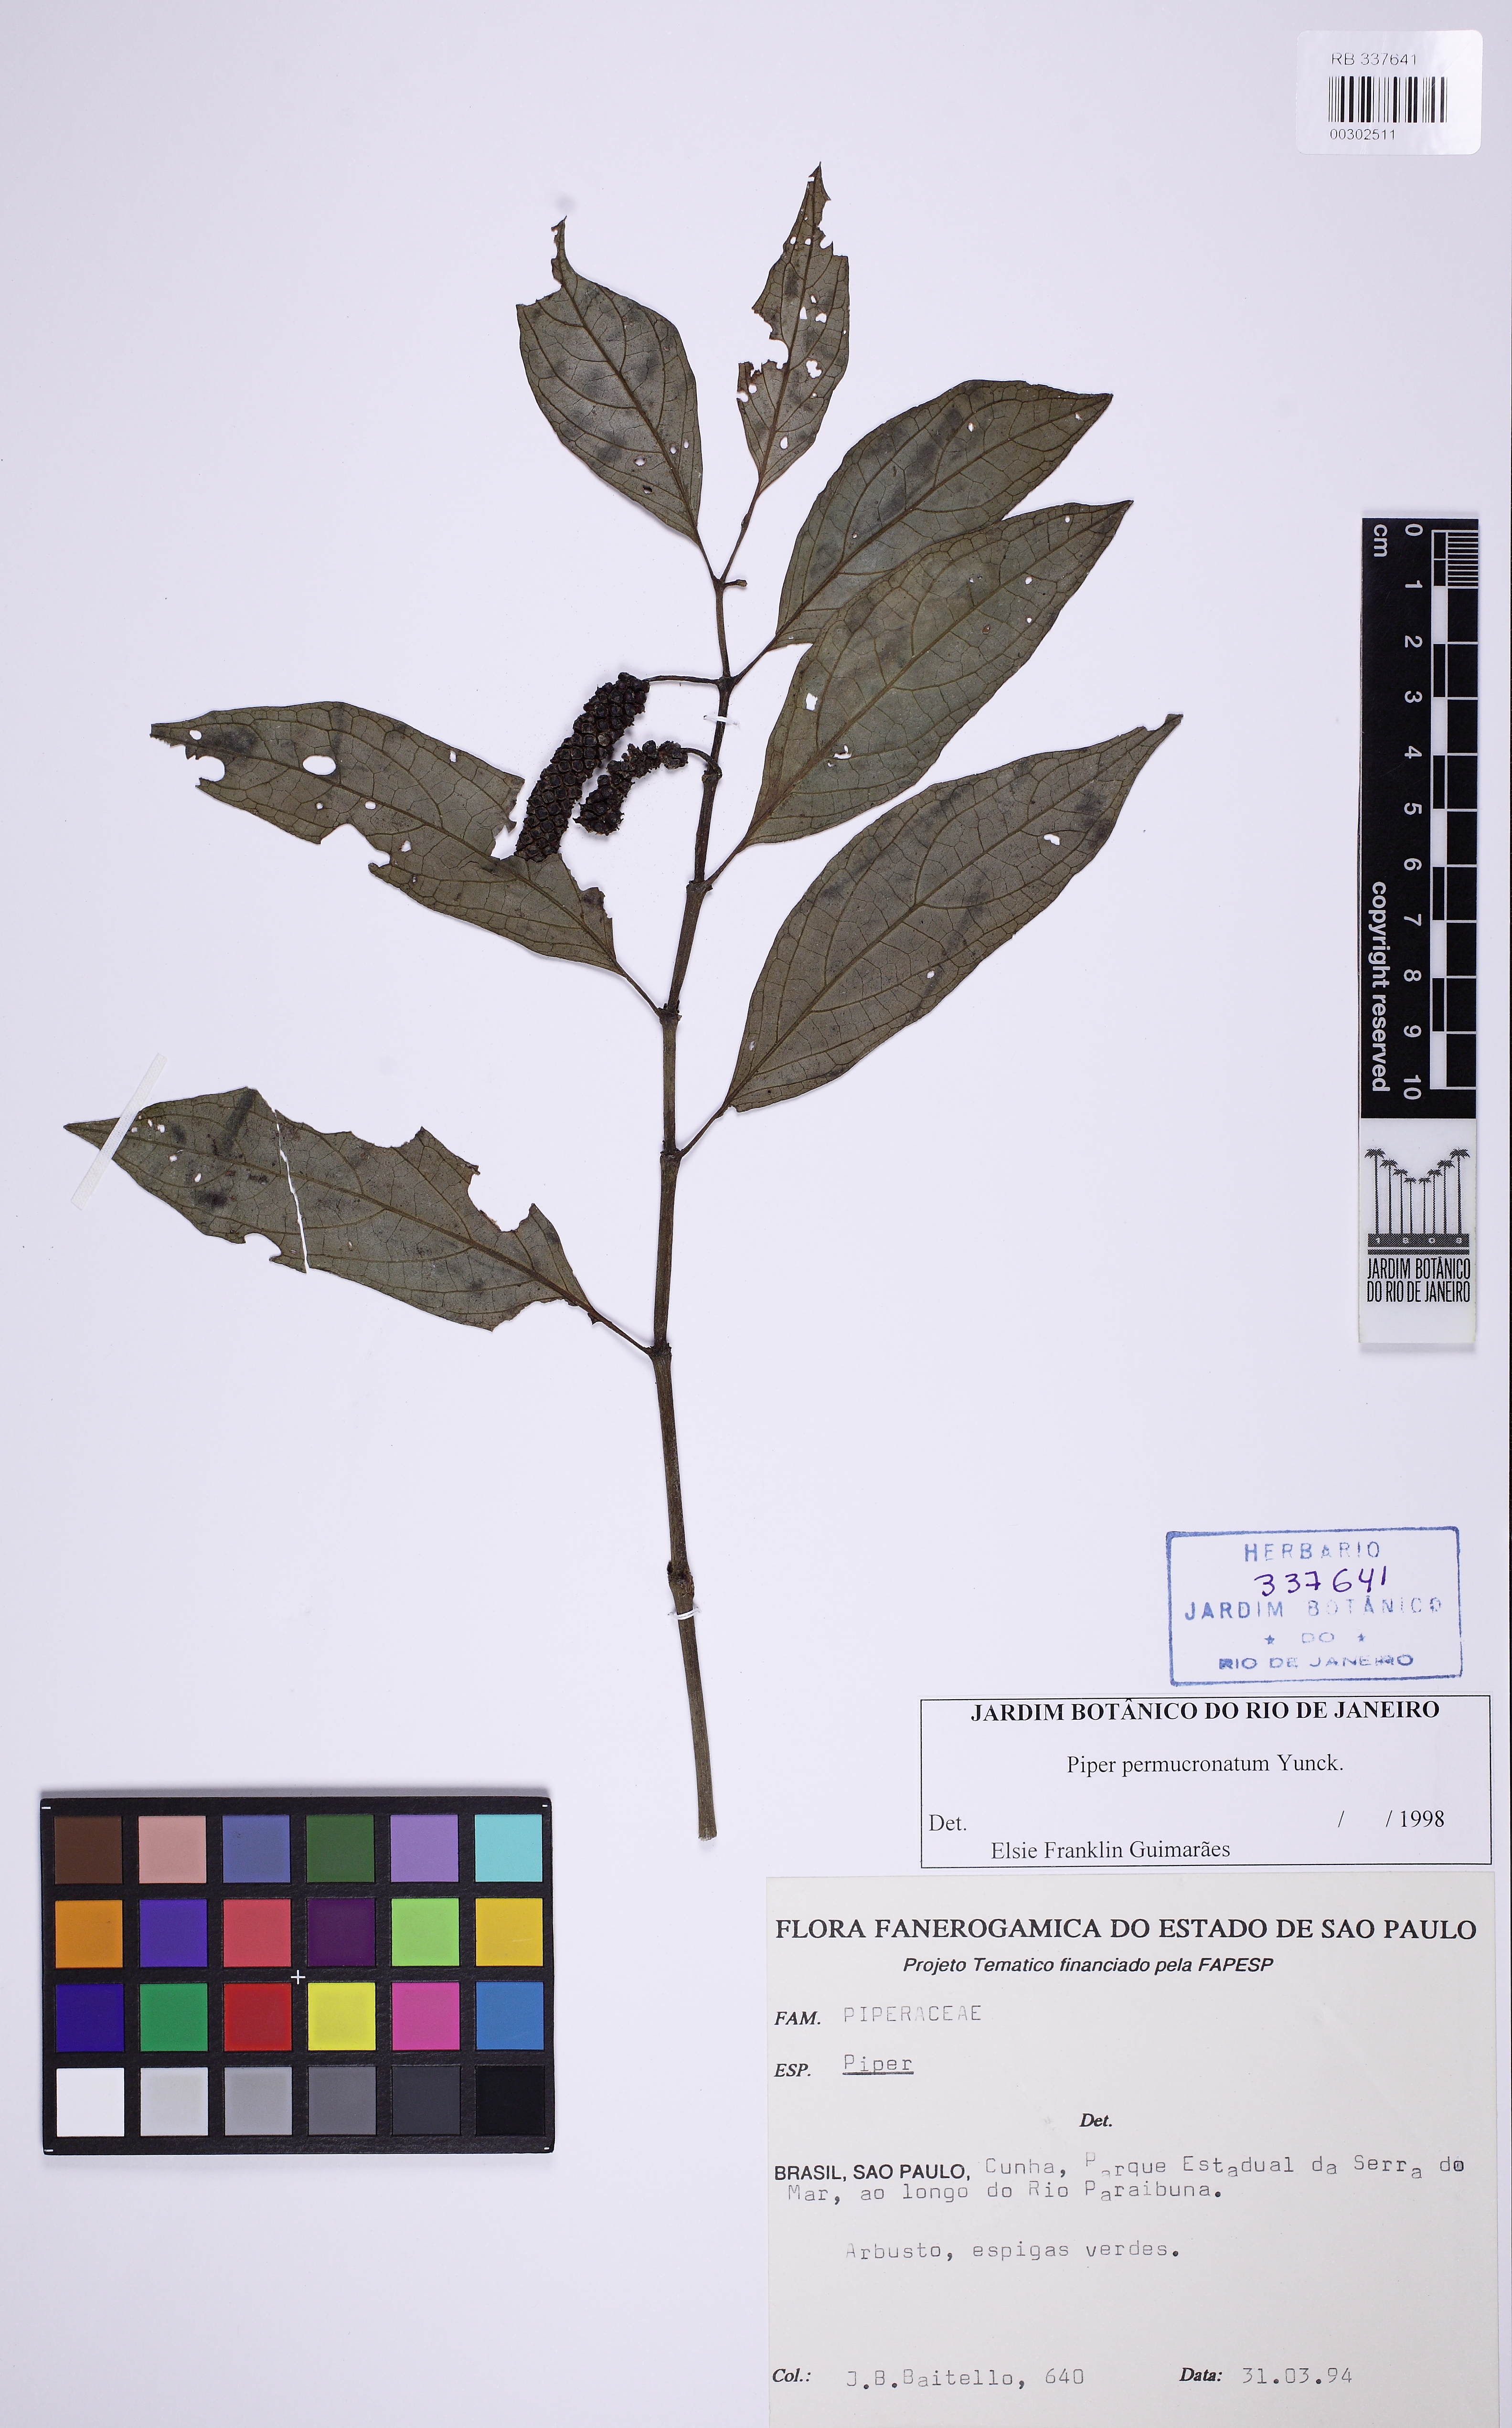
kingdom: Plantae
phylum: Tracheophyta
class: Magnoliopsida
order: Piperales
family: Piperaceae
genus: Piper
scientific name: Piper permucronatum
